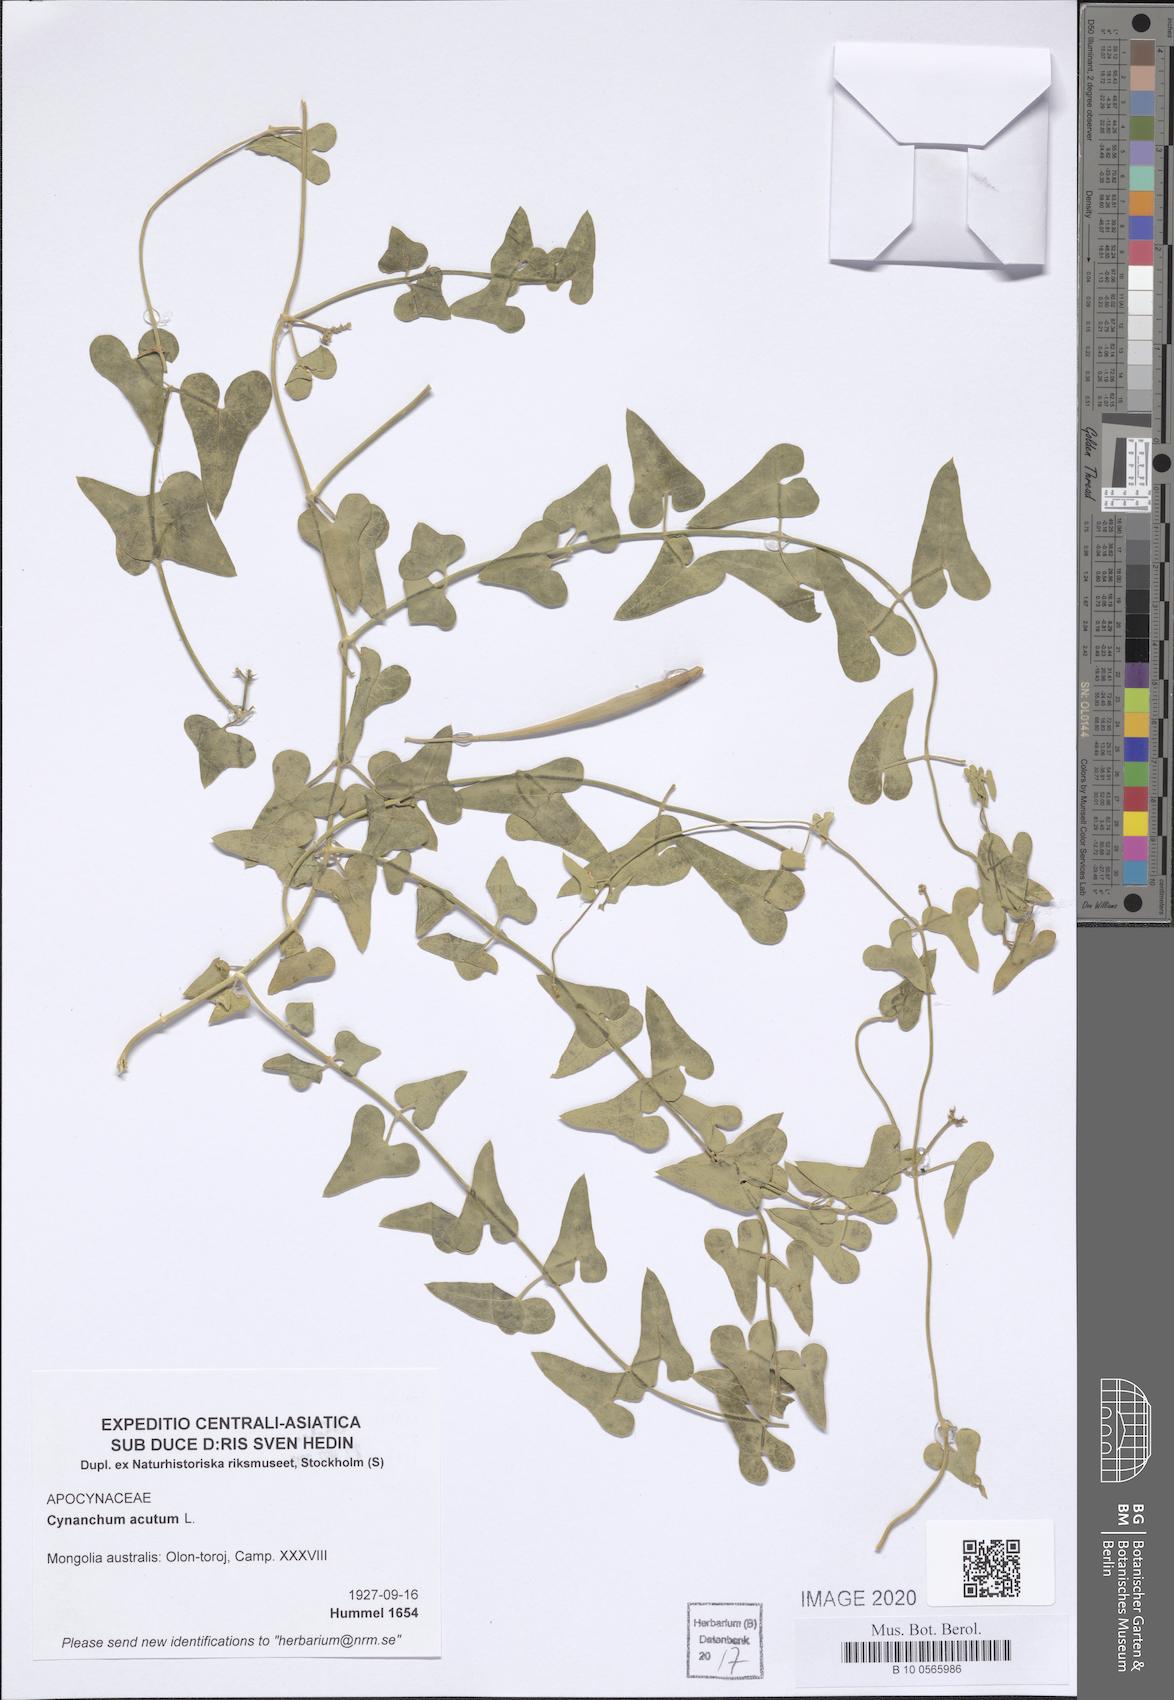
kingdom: Plantae
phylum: Tracheophyta
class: Magnoliopsida
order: Gentianales
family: Apocynaceae
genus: Cynanchum
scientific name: Cynanchum acutum
